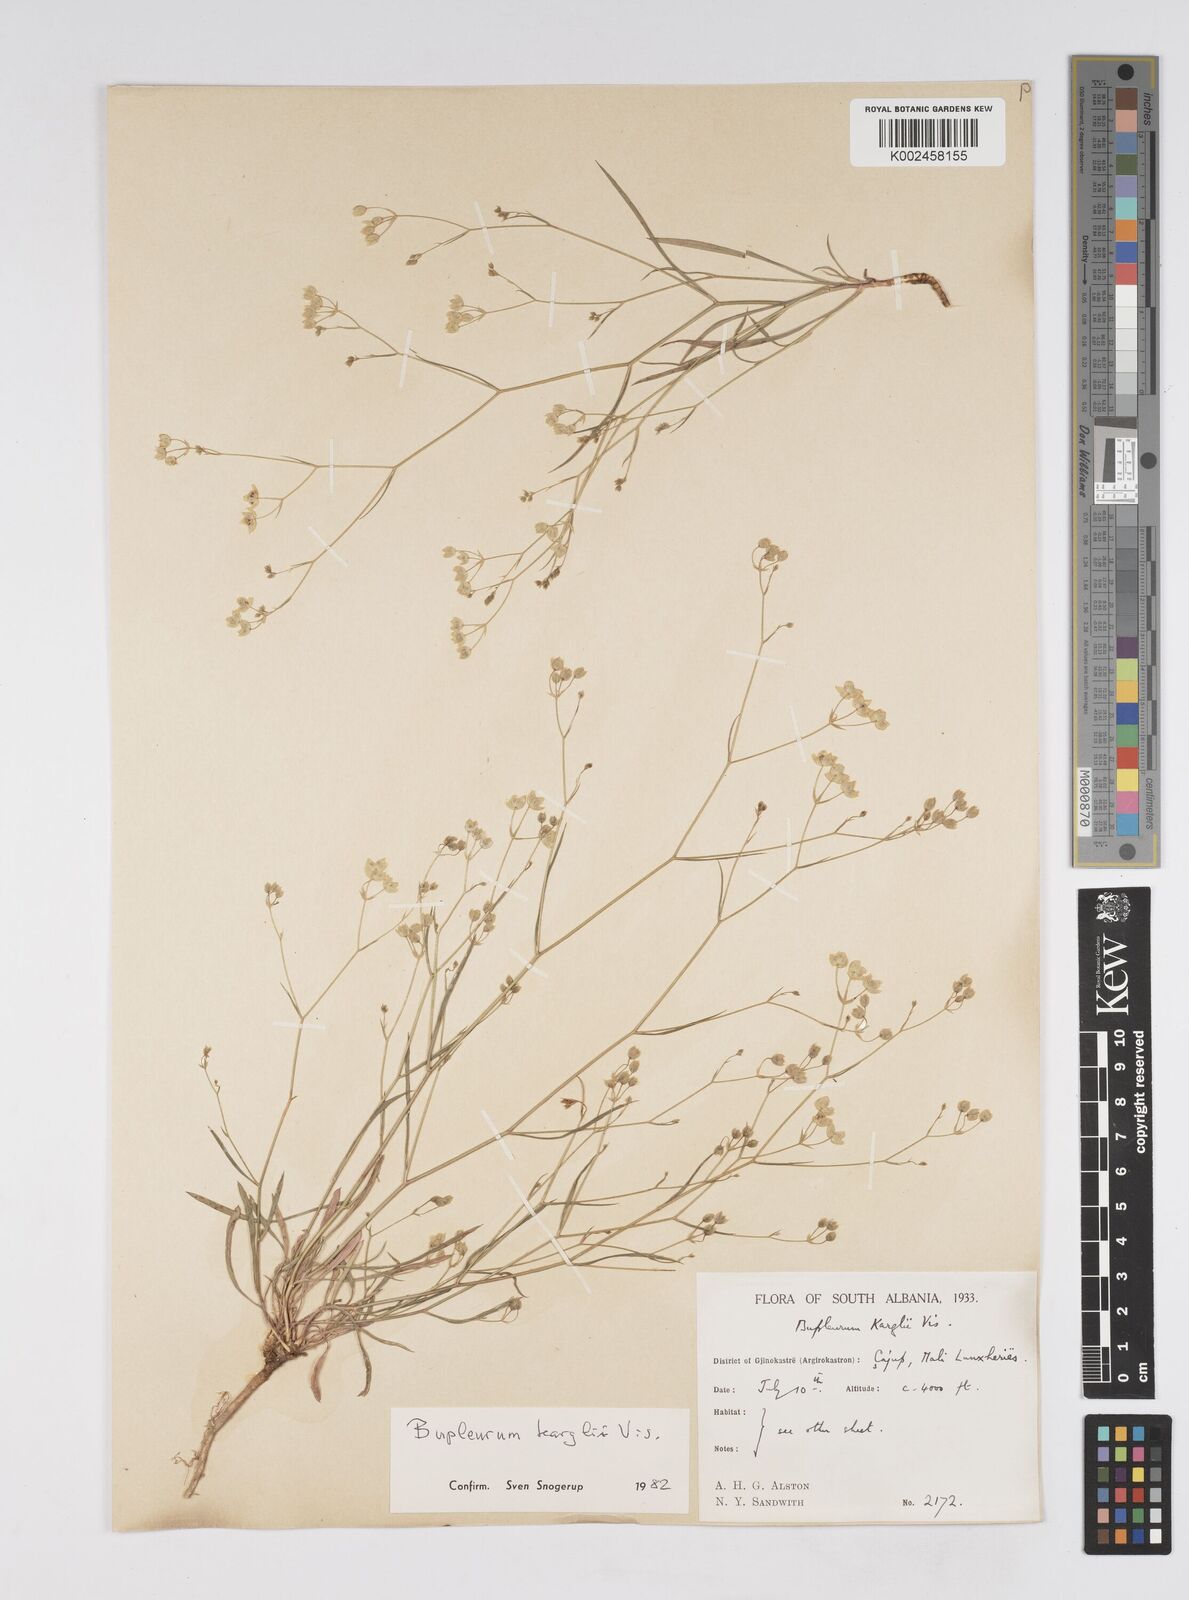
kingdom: Plantae
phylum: Tracheophyta
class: Magnoliopsida
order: Apiales
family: Apiaceae
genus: Bupleurum
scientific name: Bupleurum karglii
